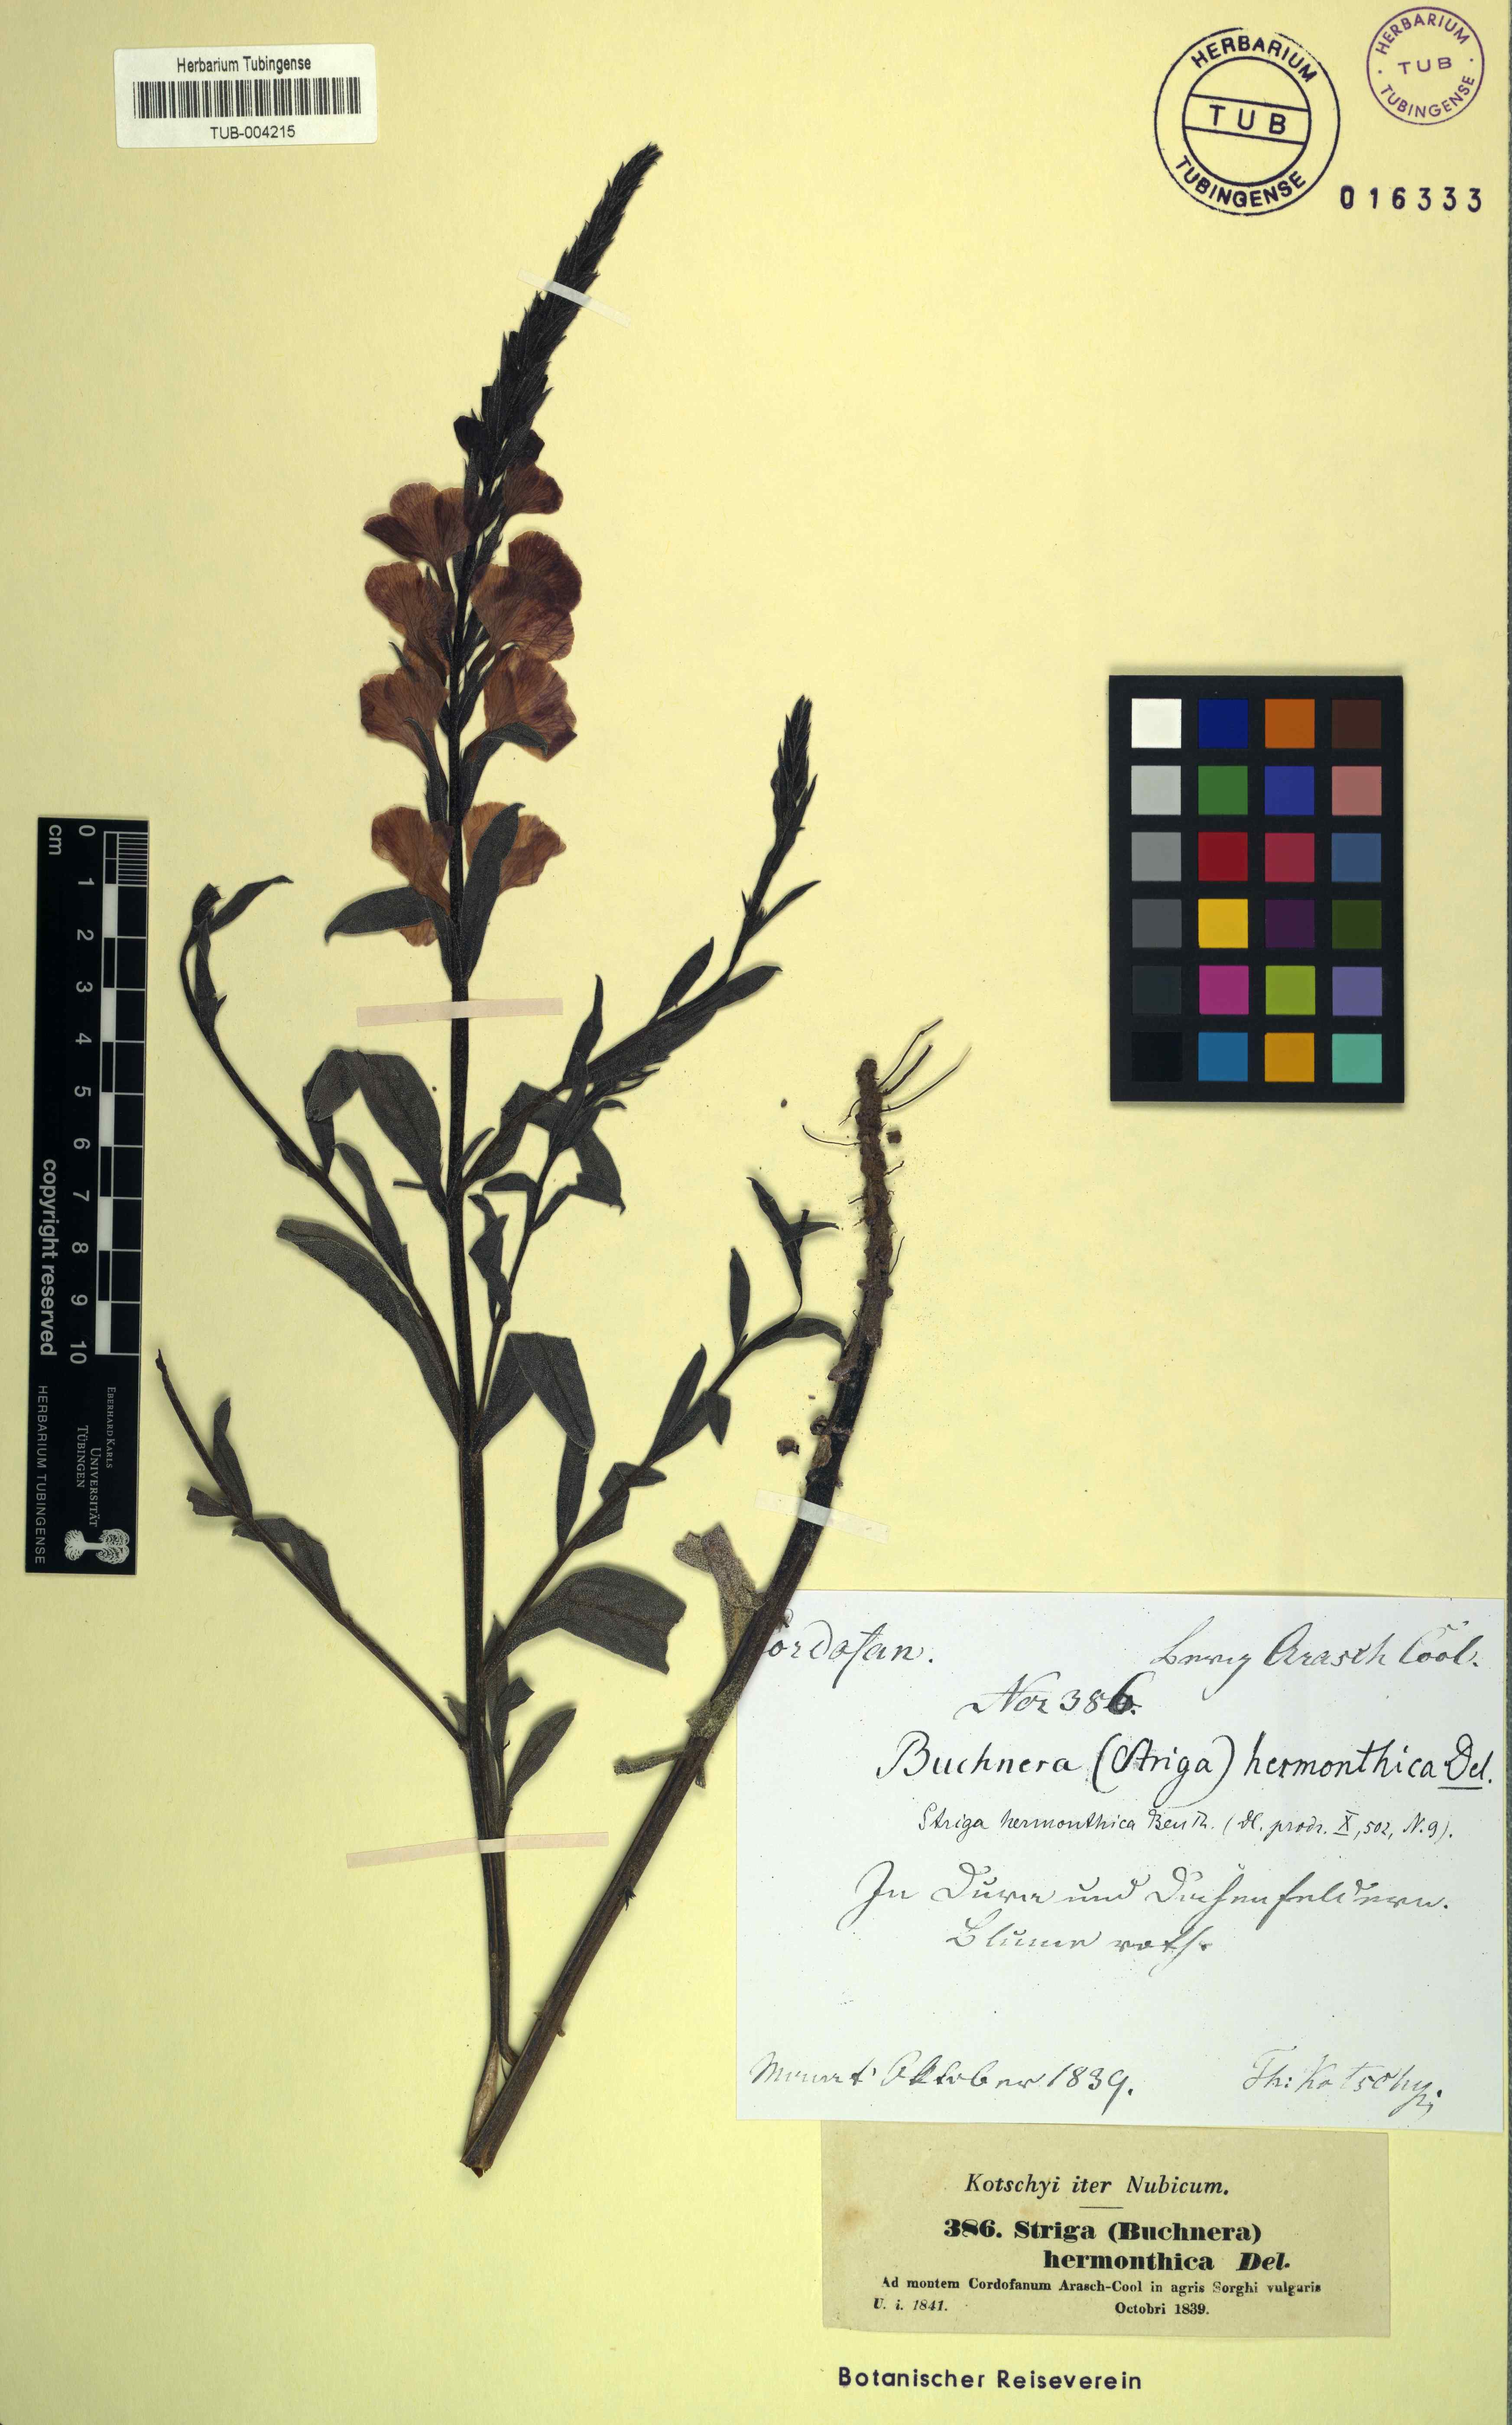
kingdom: Plantae
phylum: Tracheophyta
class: Magnoliopsida
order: Lamiales
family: Orobanchaceae
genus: Striga
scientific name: Striga hermonthica
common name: Purple witchweed
